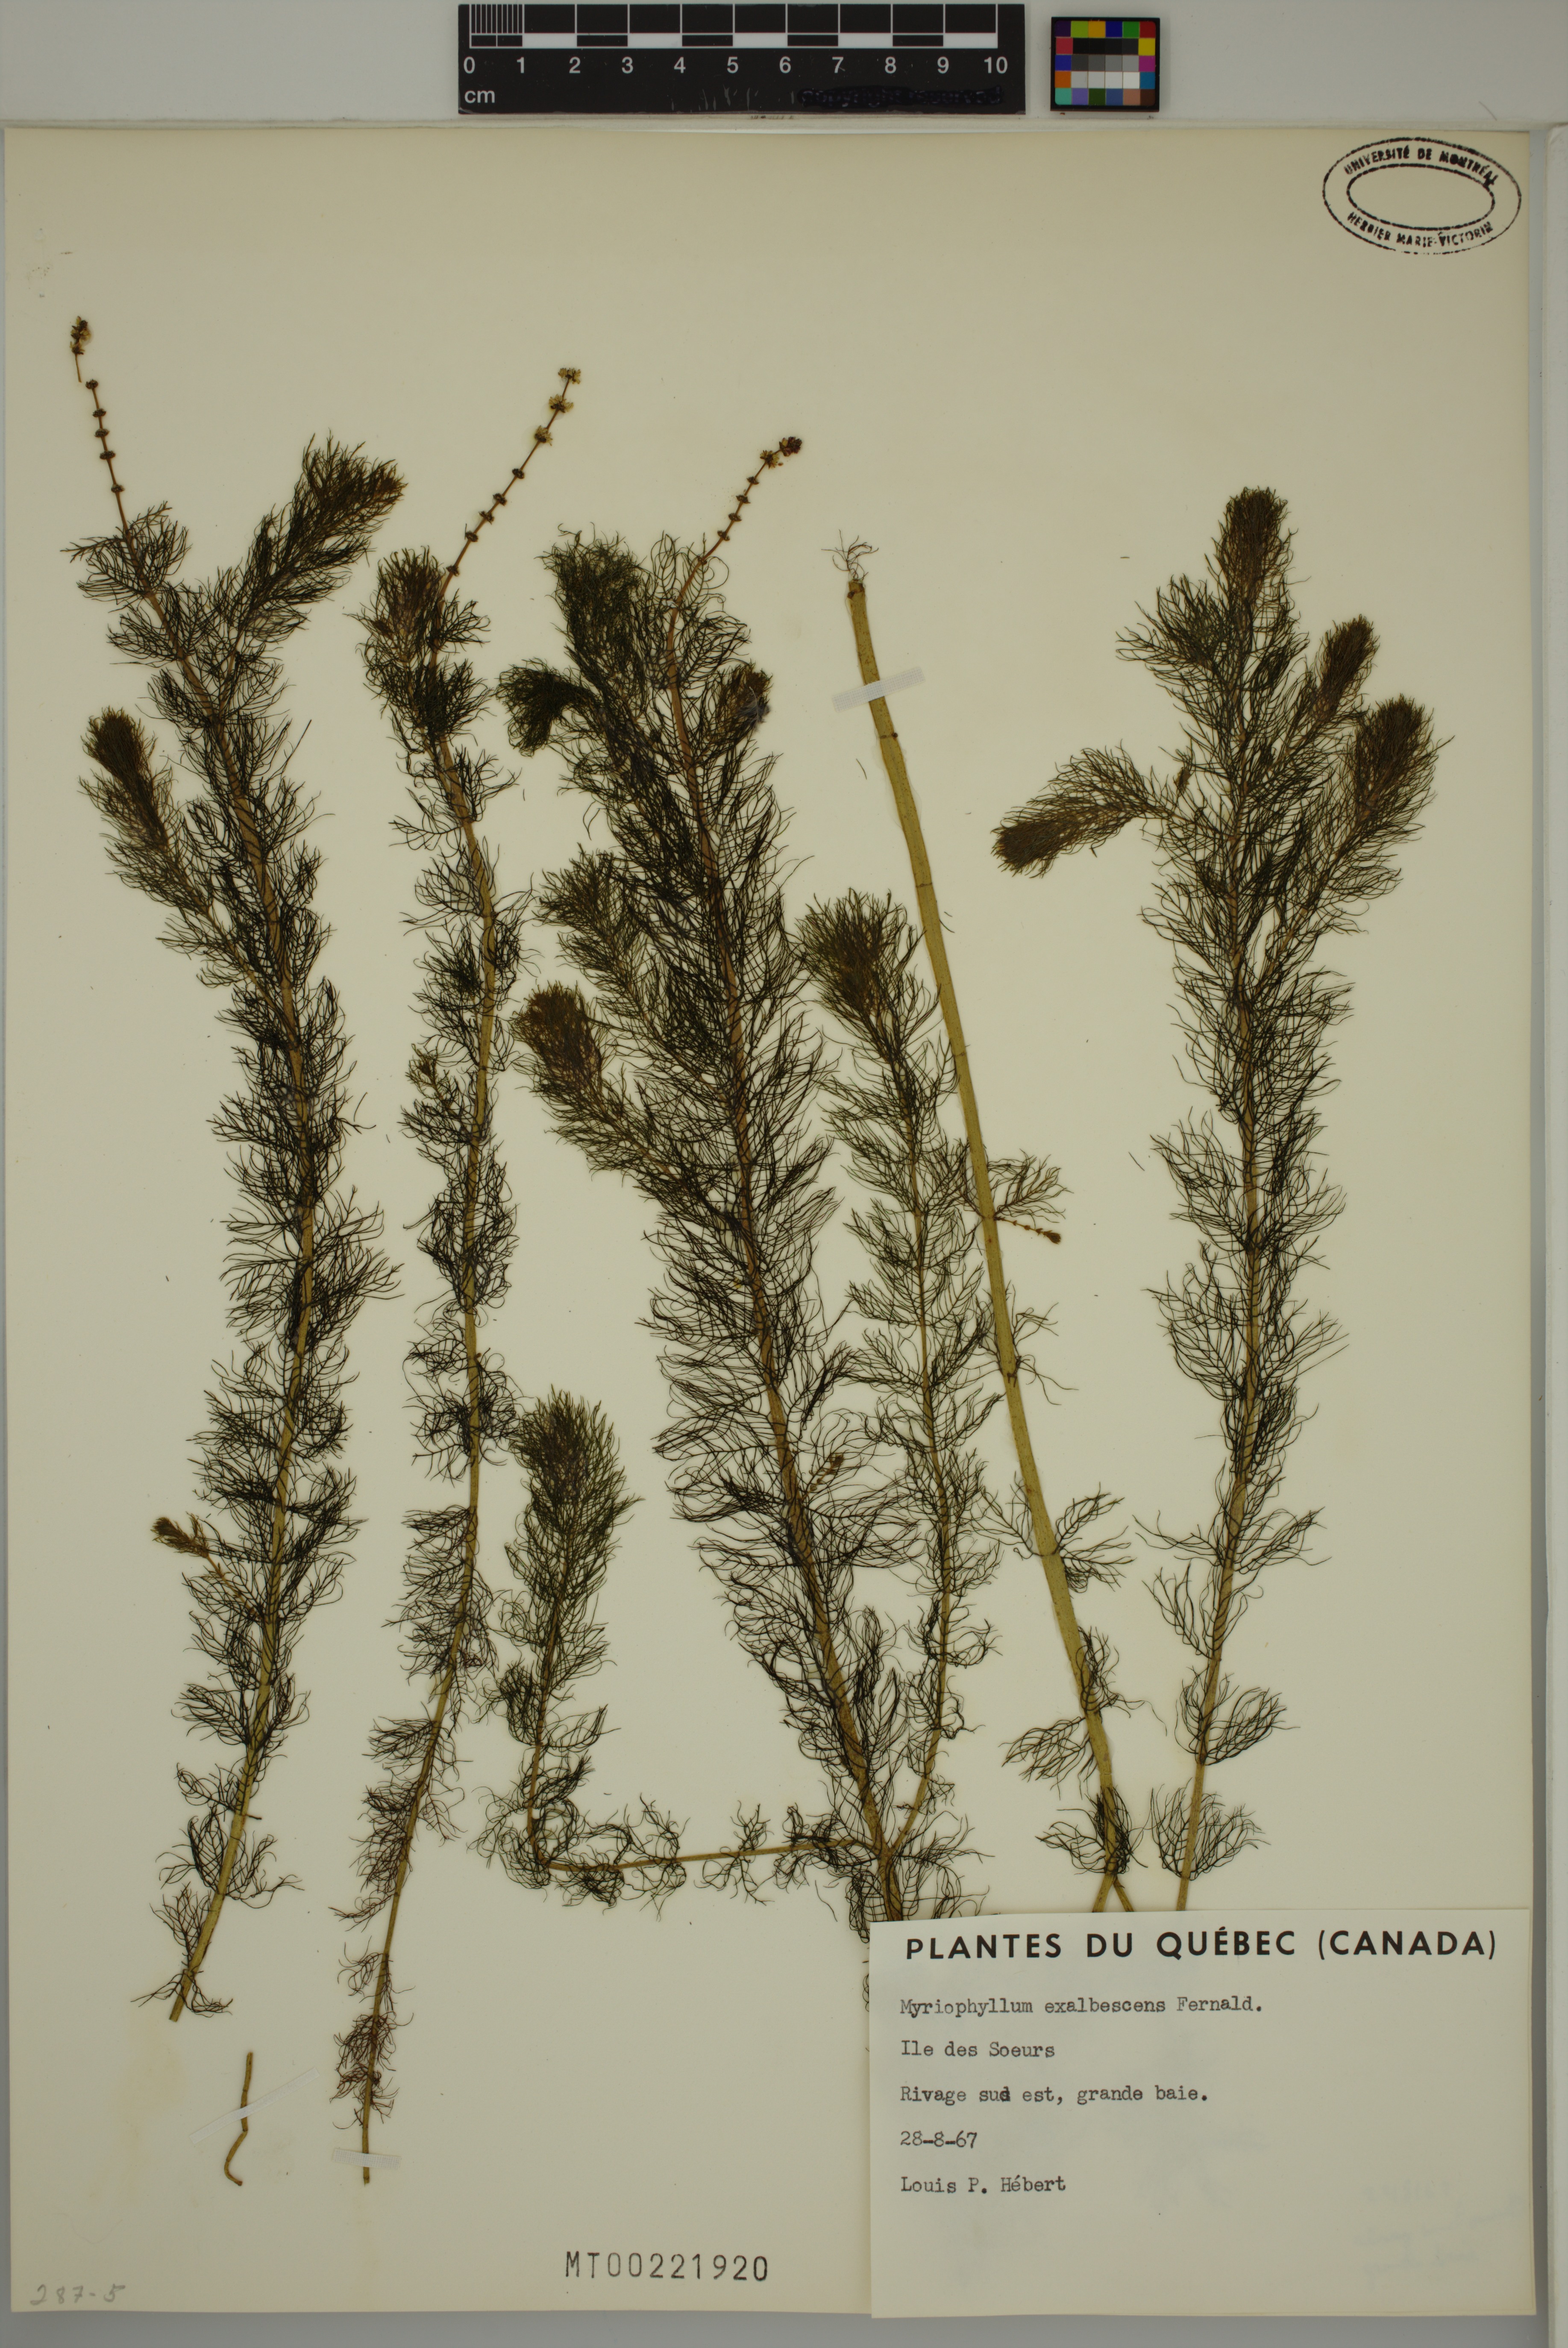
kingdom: Plantae
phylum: Tracheophyta
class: Magnoliopsida
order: Saxifragales
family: Haloragaceae
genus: Myriophyllum
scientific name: Myriophyllum sibiricum
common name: Siberian water-milfoil
